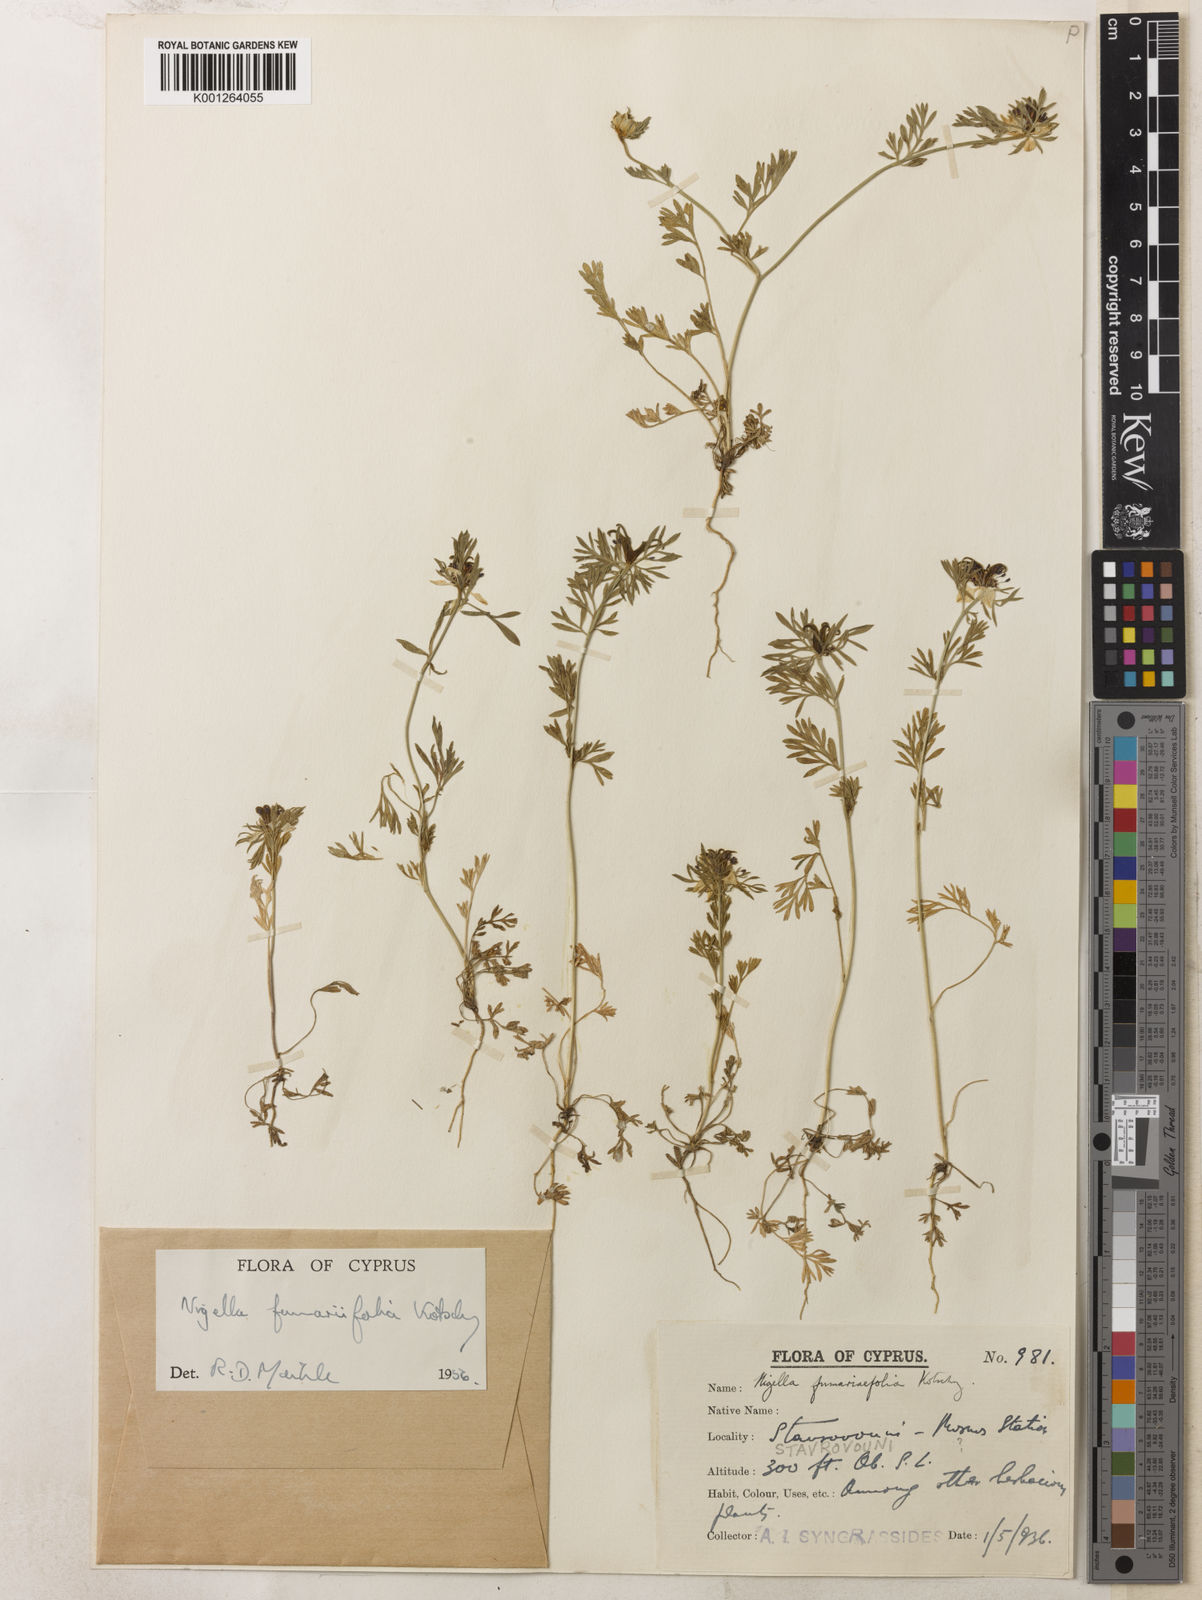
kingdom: Plantae
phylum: Tracheophyta
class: Magnoliopsida
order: Ranunculales
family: Ranunculaceae
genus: Nigella
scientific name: Nigella
